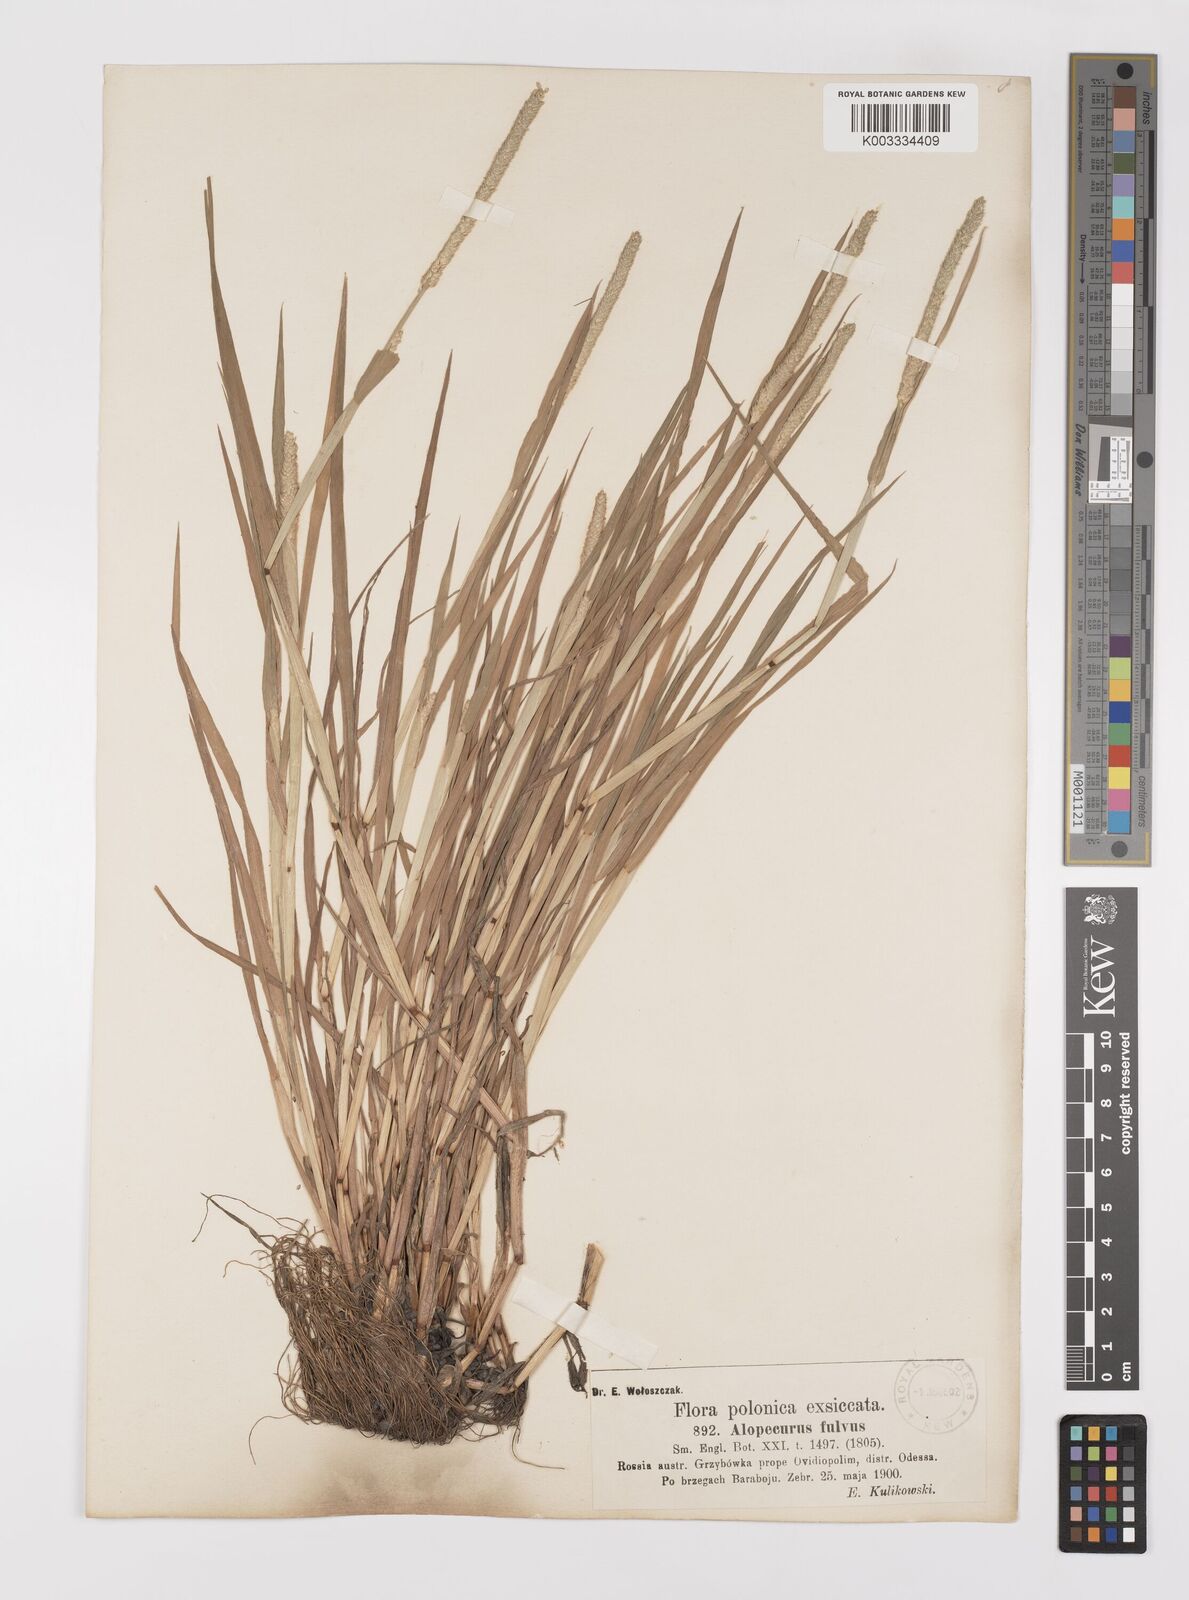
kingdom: Plantae
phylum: Tracheophyta
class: Liliopsida
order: Poales
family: Poaceae
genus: Alopecurus
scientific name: Alopecurus aequalis
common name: Orange foxtail
